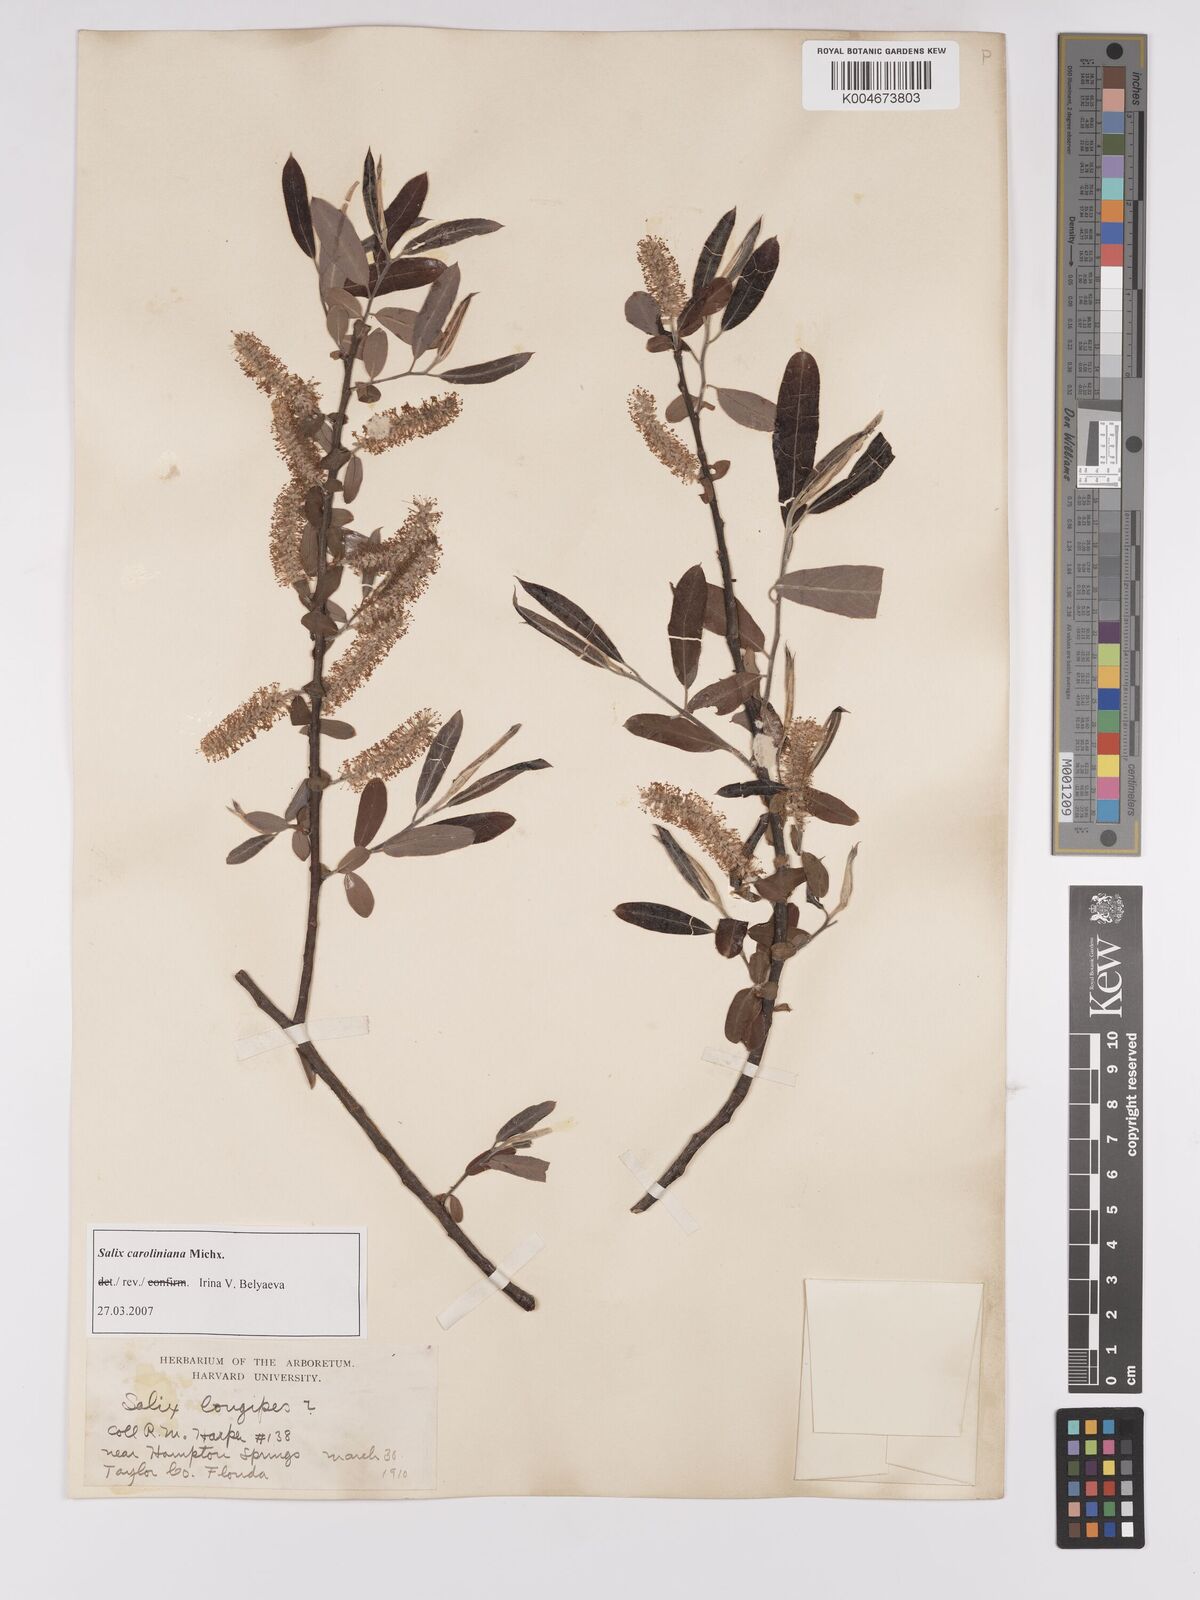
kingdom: Plantae
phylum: Tracheophyta
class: Magnoliopsida
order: Malpighiales
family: Salicaceae
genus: Salix
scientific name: Salix caroliniana
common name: Carolina willow
